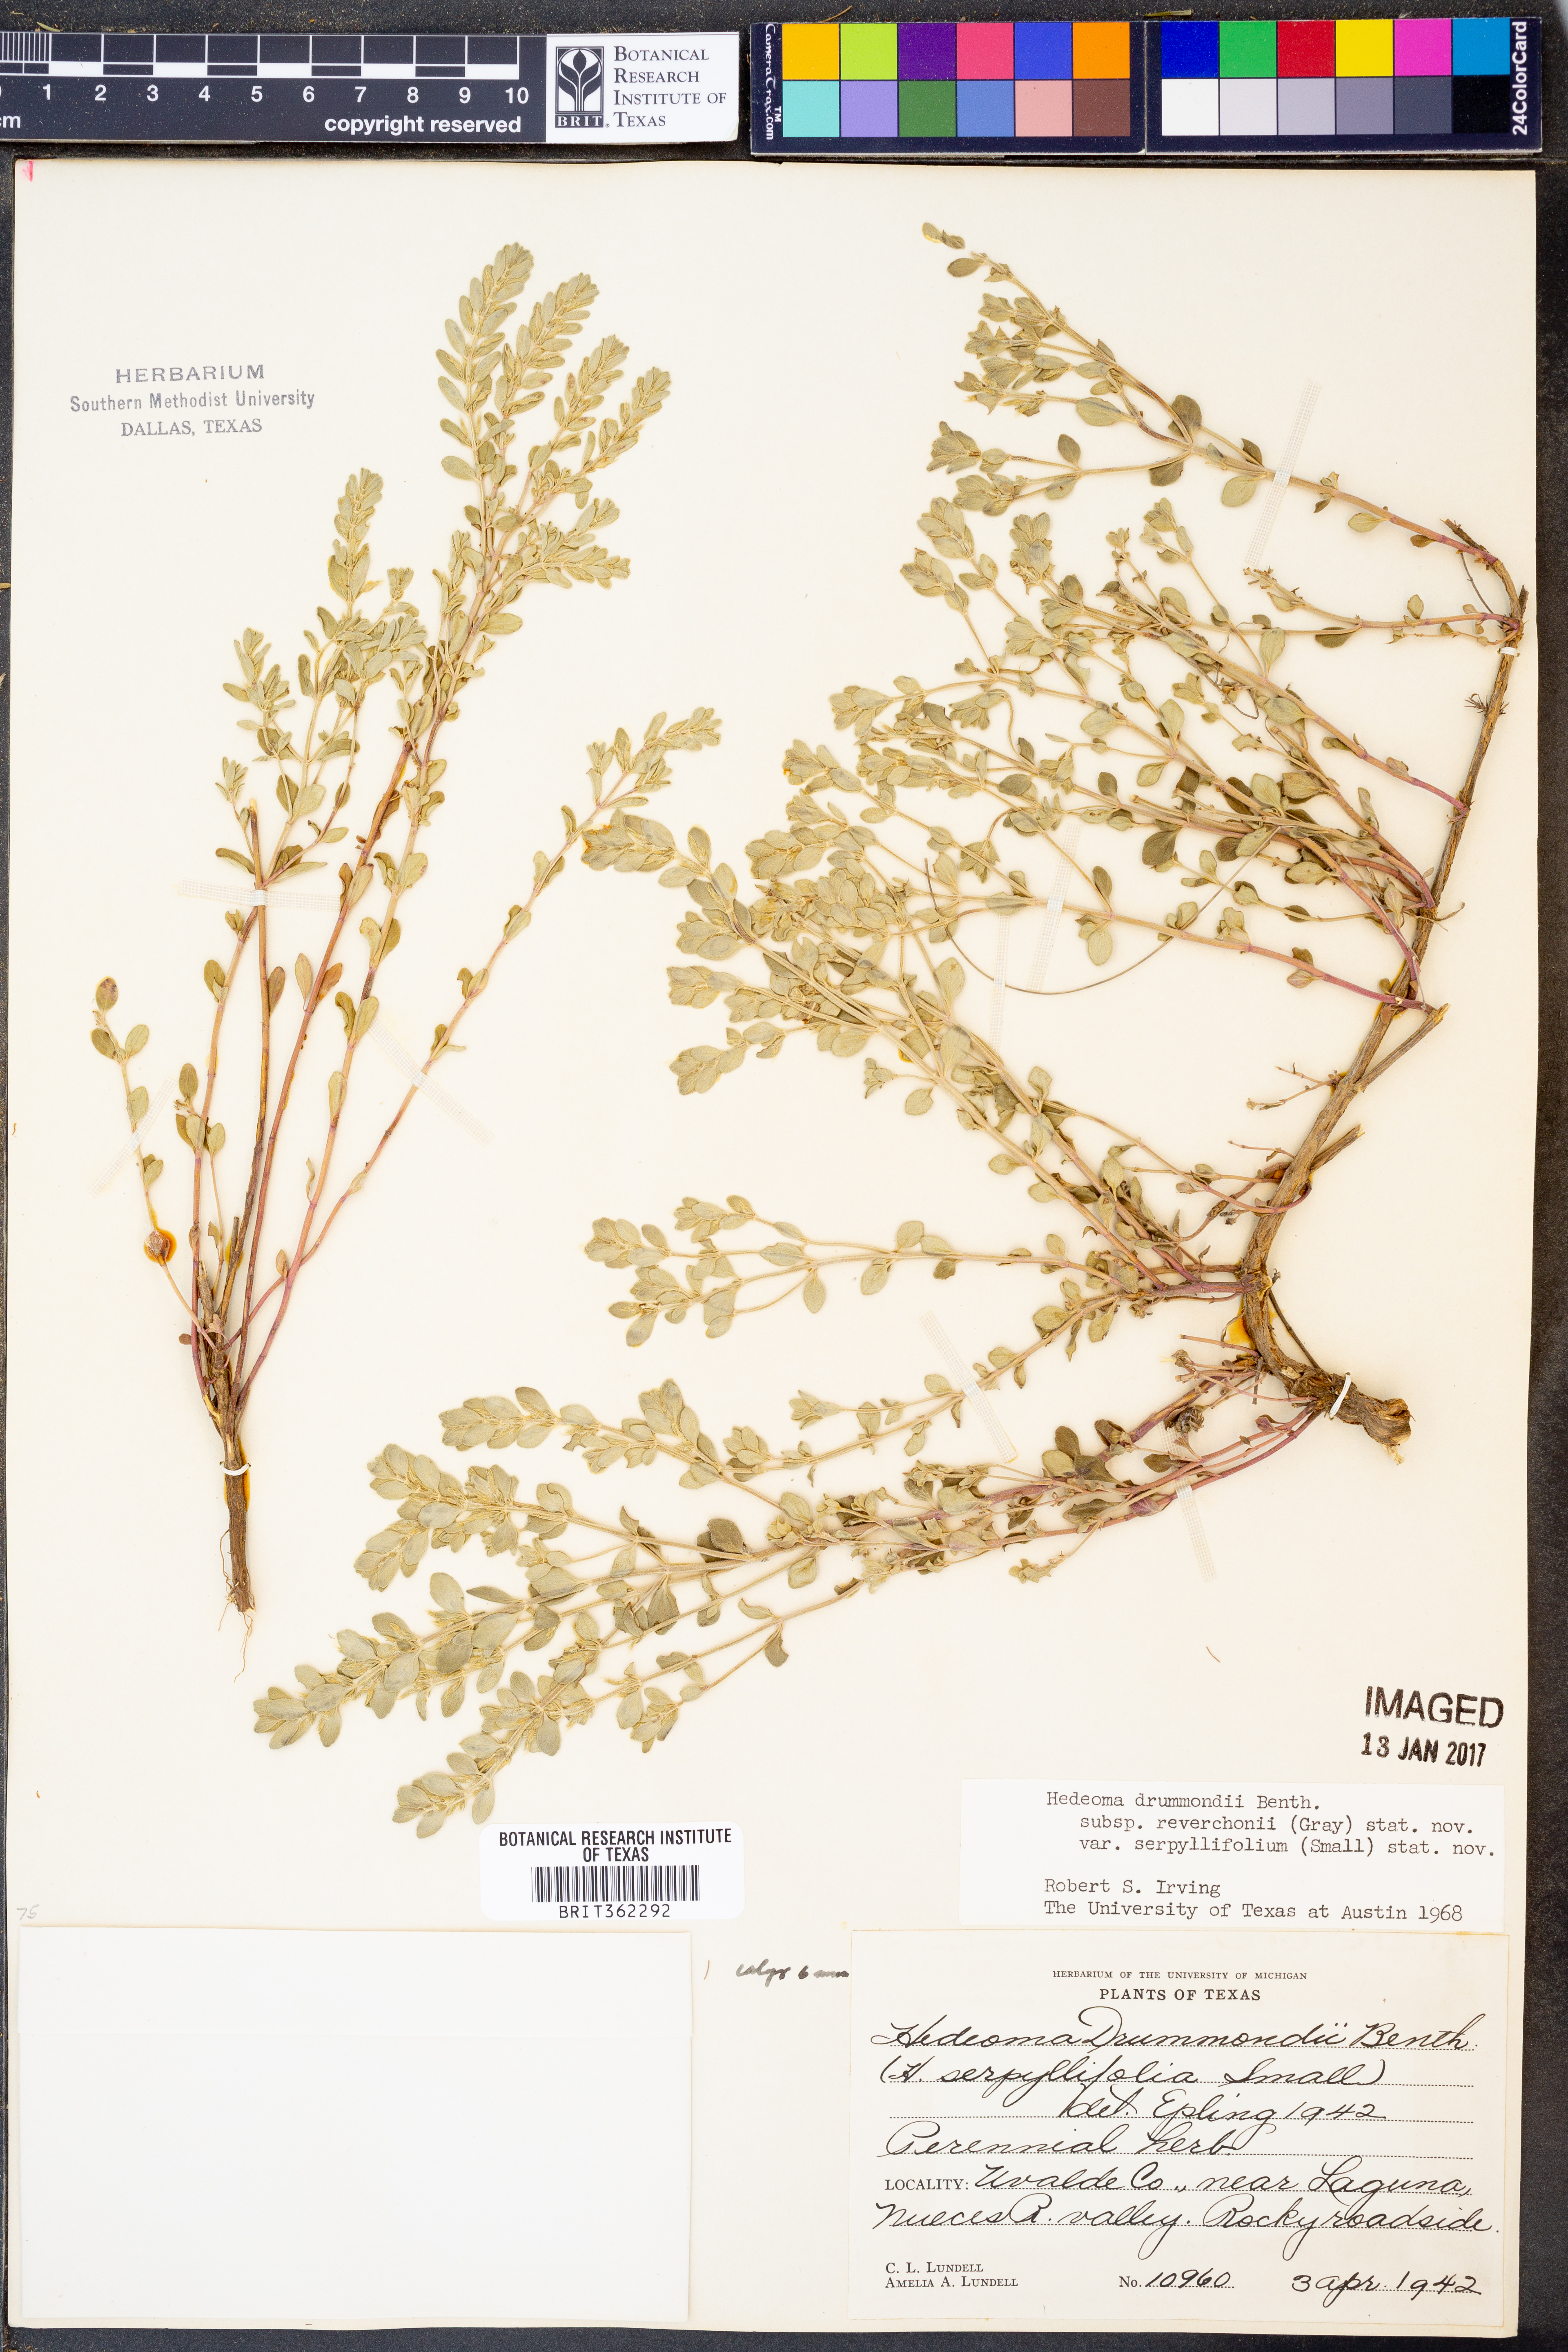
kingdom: Plantae
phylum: Tracheophyta
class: Magnoliopsida
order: Lamiales
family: Lamiaceae
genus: Hedeoma
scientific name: Hedeoma reverchonii
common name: Reverchon's false penny-royal
